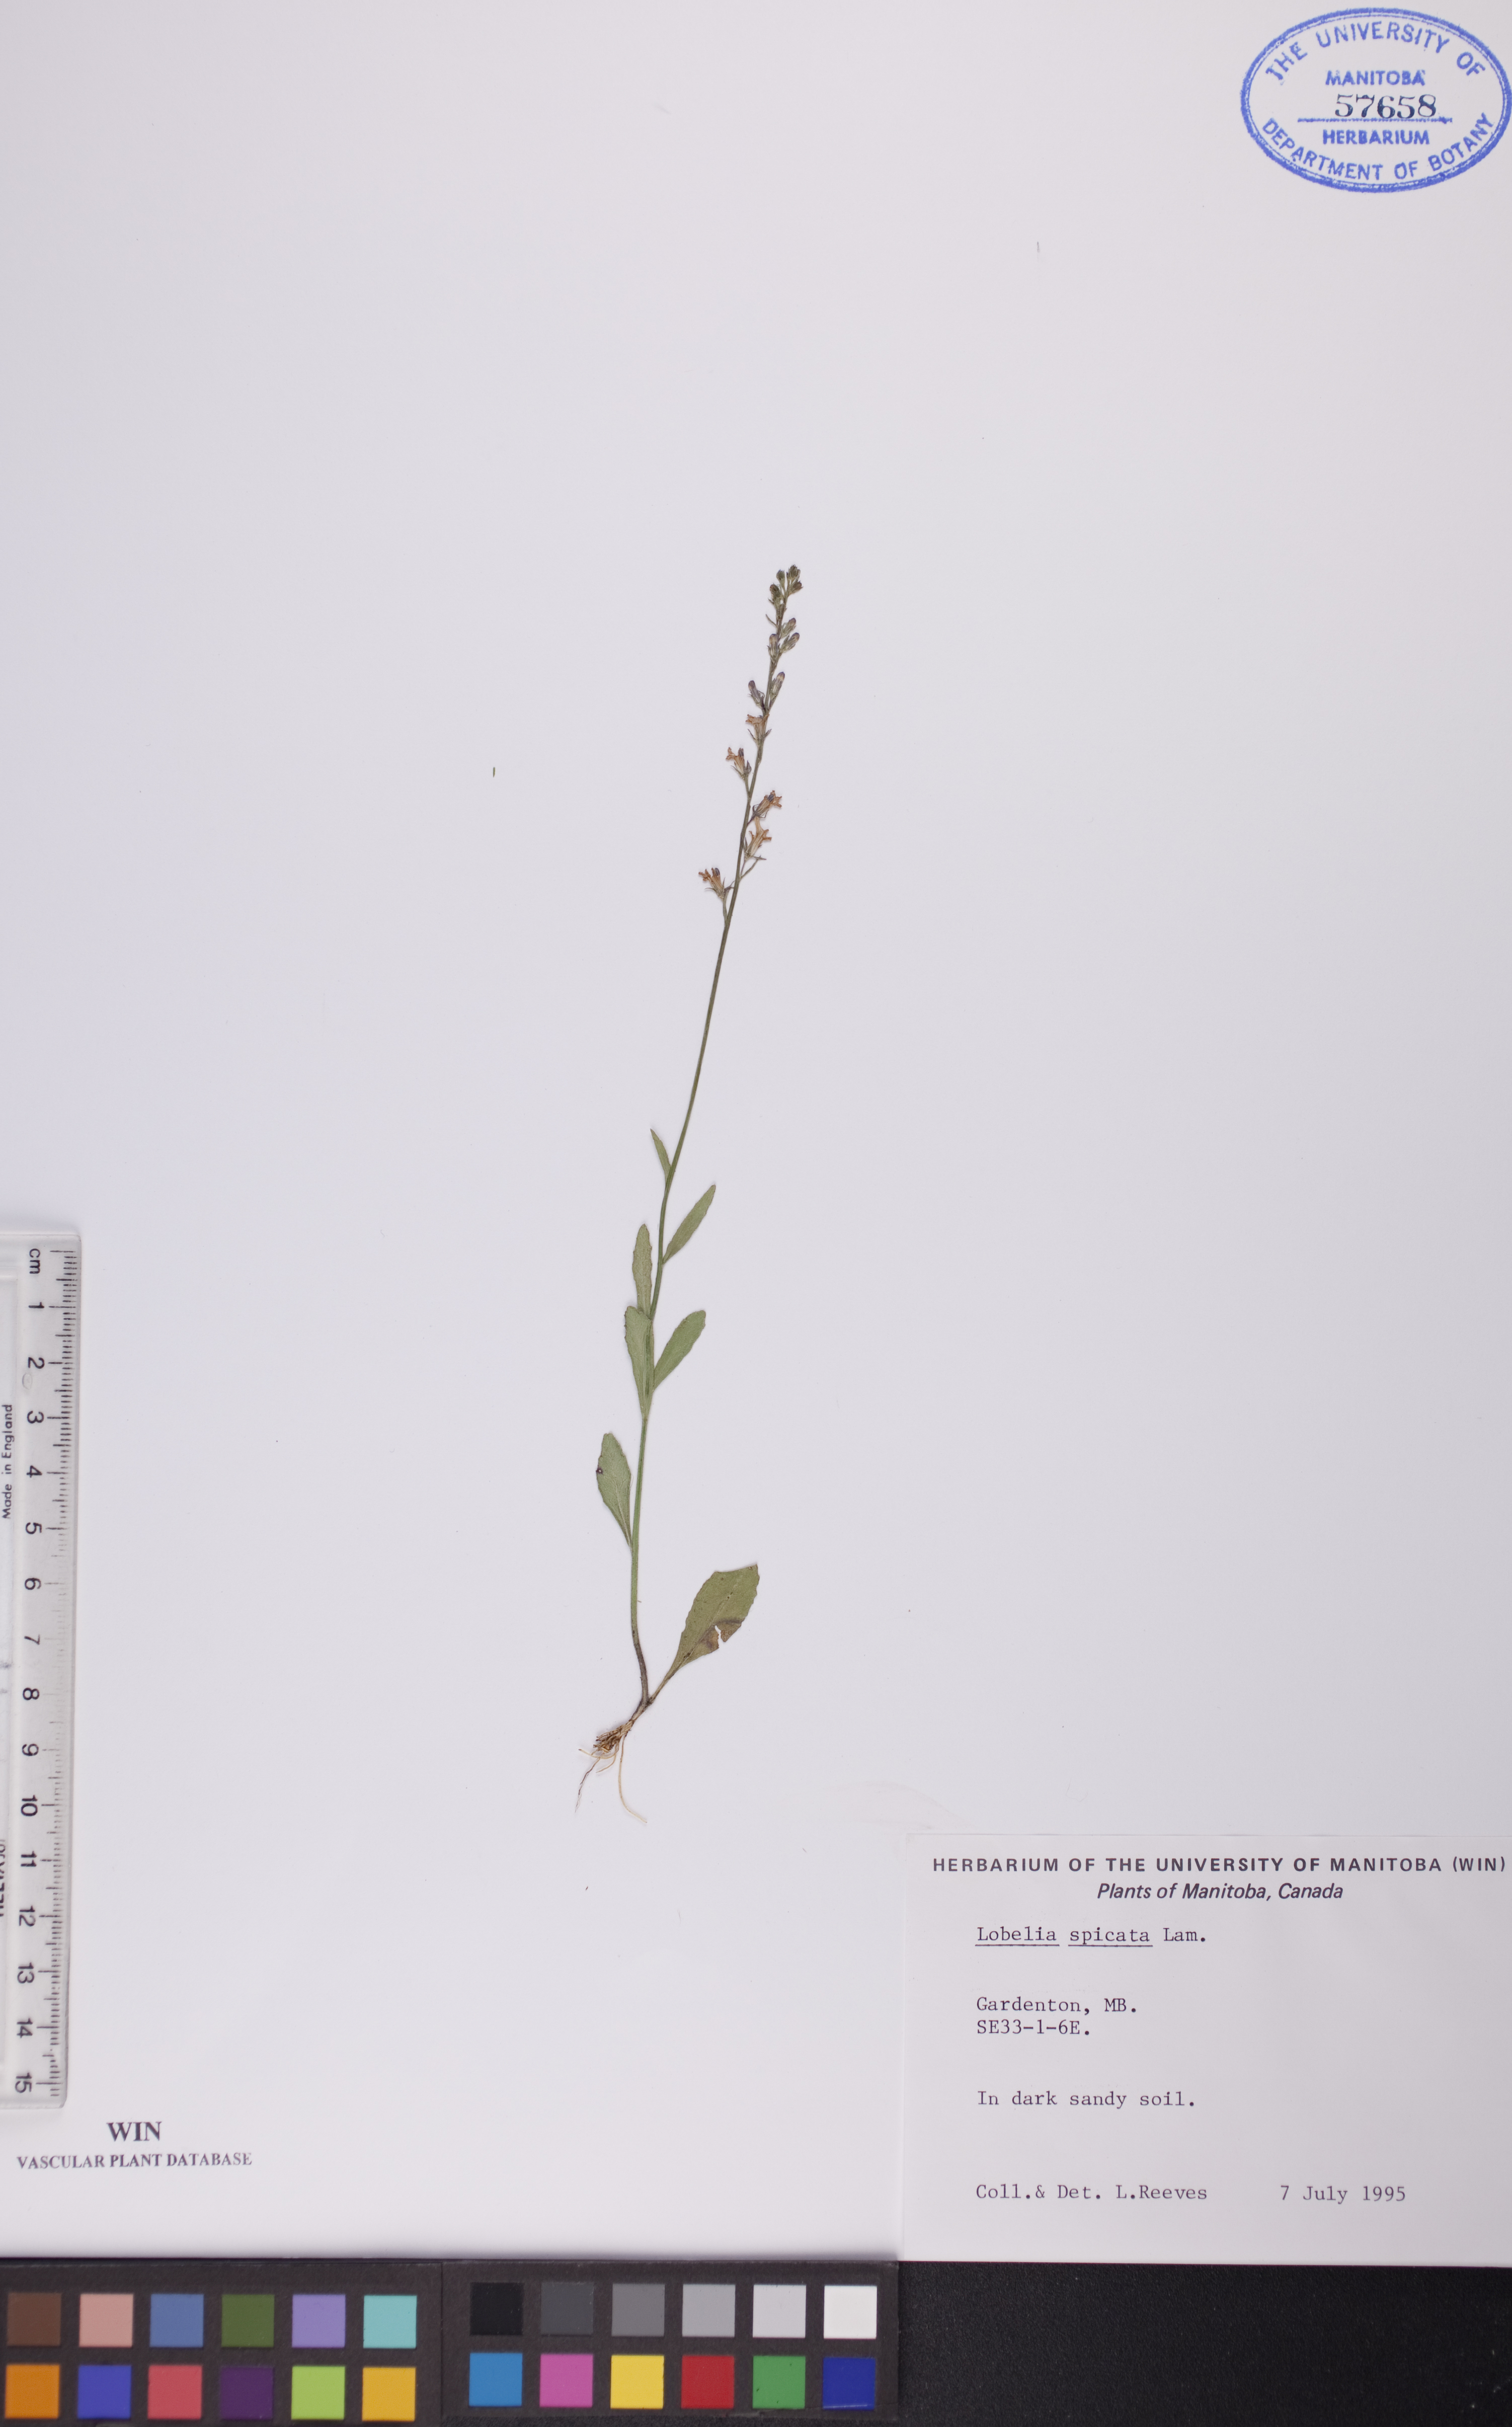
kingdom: Plantae
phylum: Tracheophyta
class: Magnoliopsida
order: Asterales
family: Campanulaceae
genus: Lobelia
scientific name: Lobelia spicata
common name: Pale-spike lobelia
